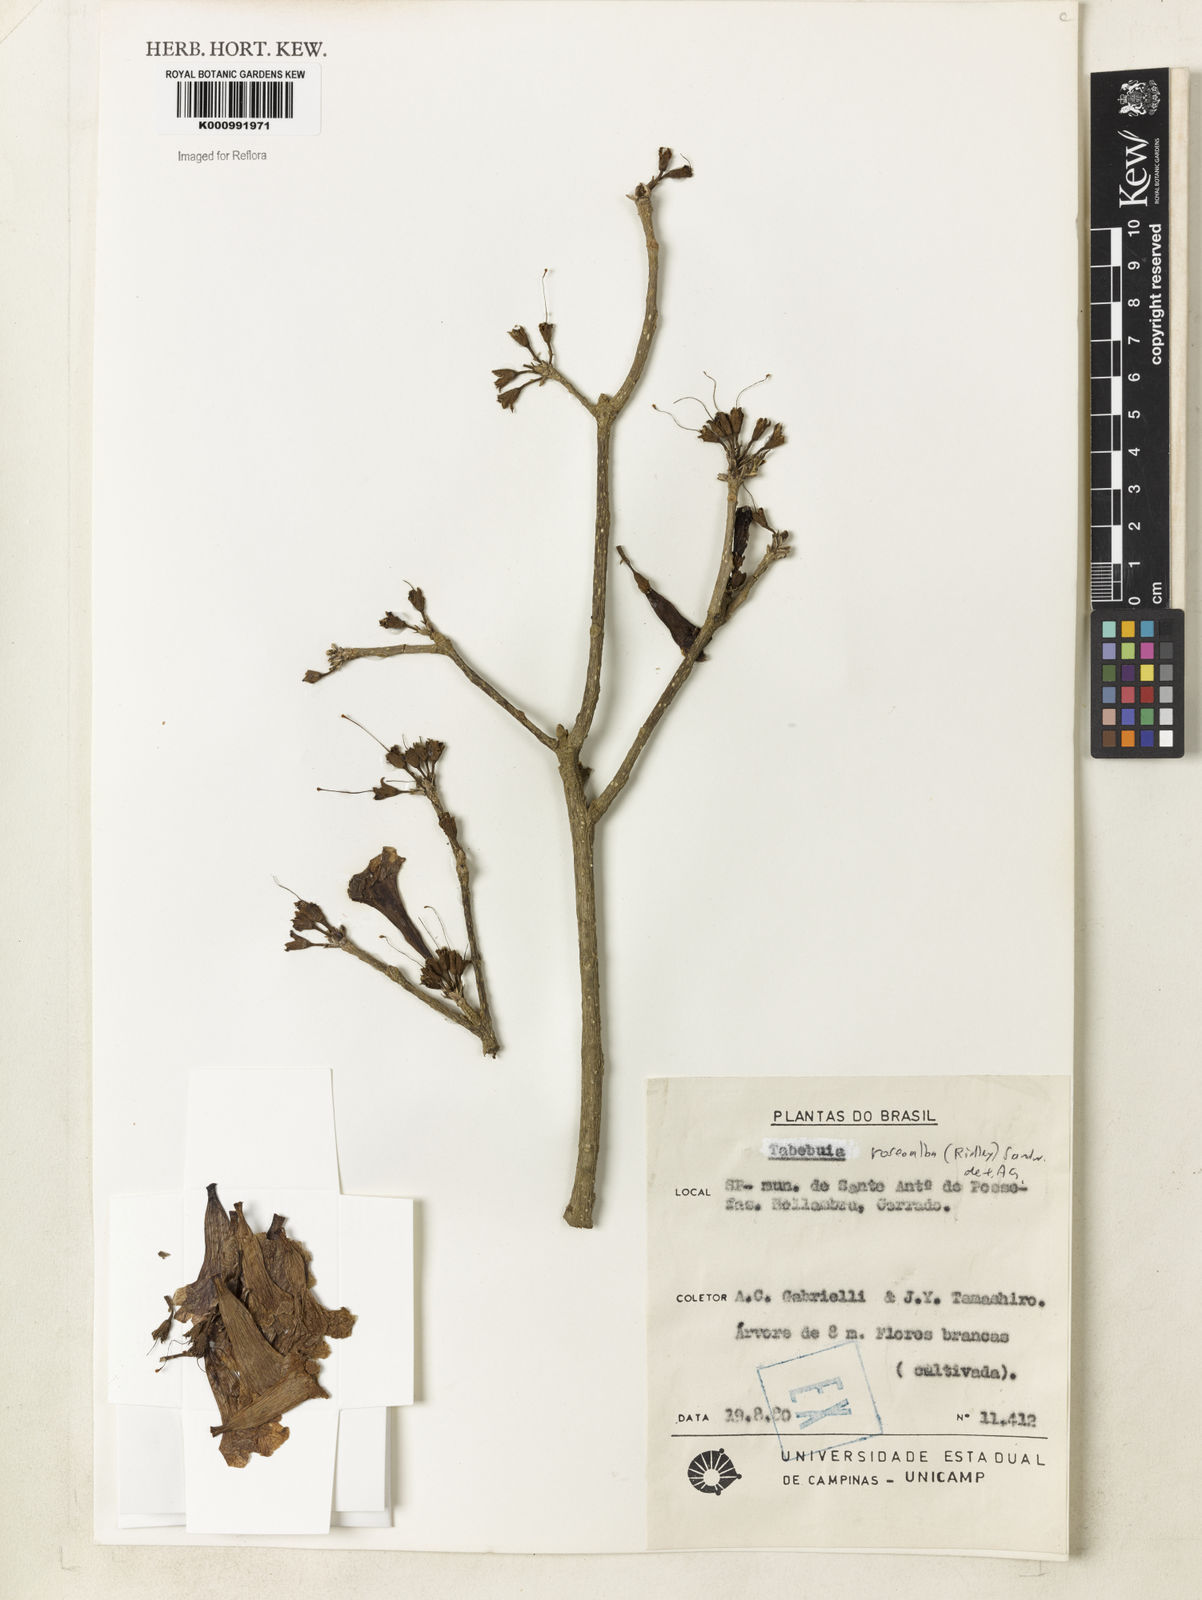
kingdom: Plantae
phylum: Tracheophyta
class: Magnoliopsida
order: Lamiales
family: Bignoniaceae
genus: Tabebuia
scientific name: Tabebuia roseoalba
